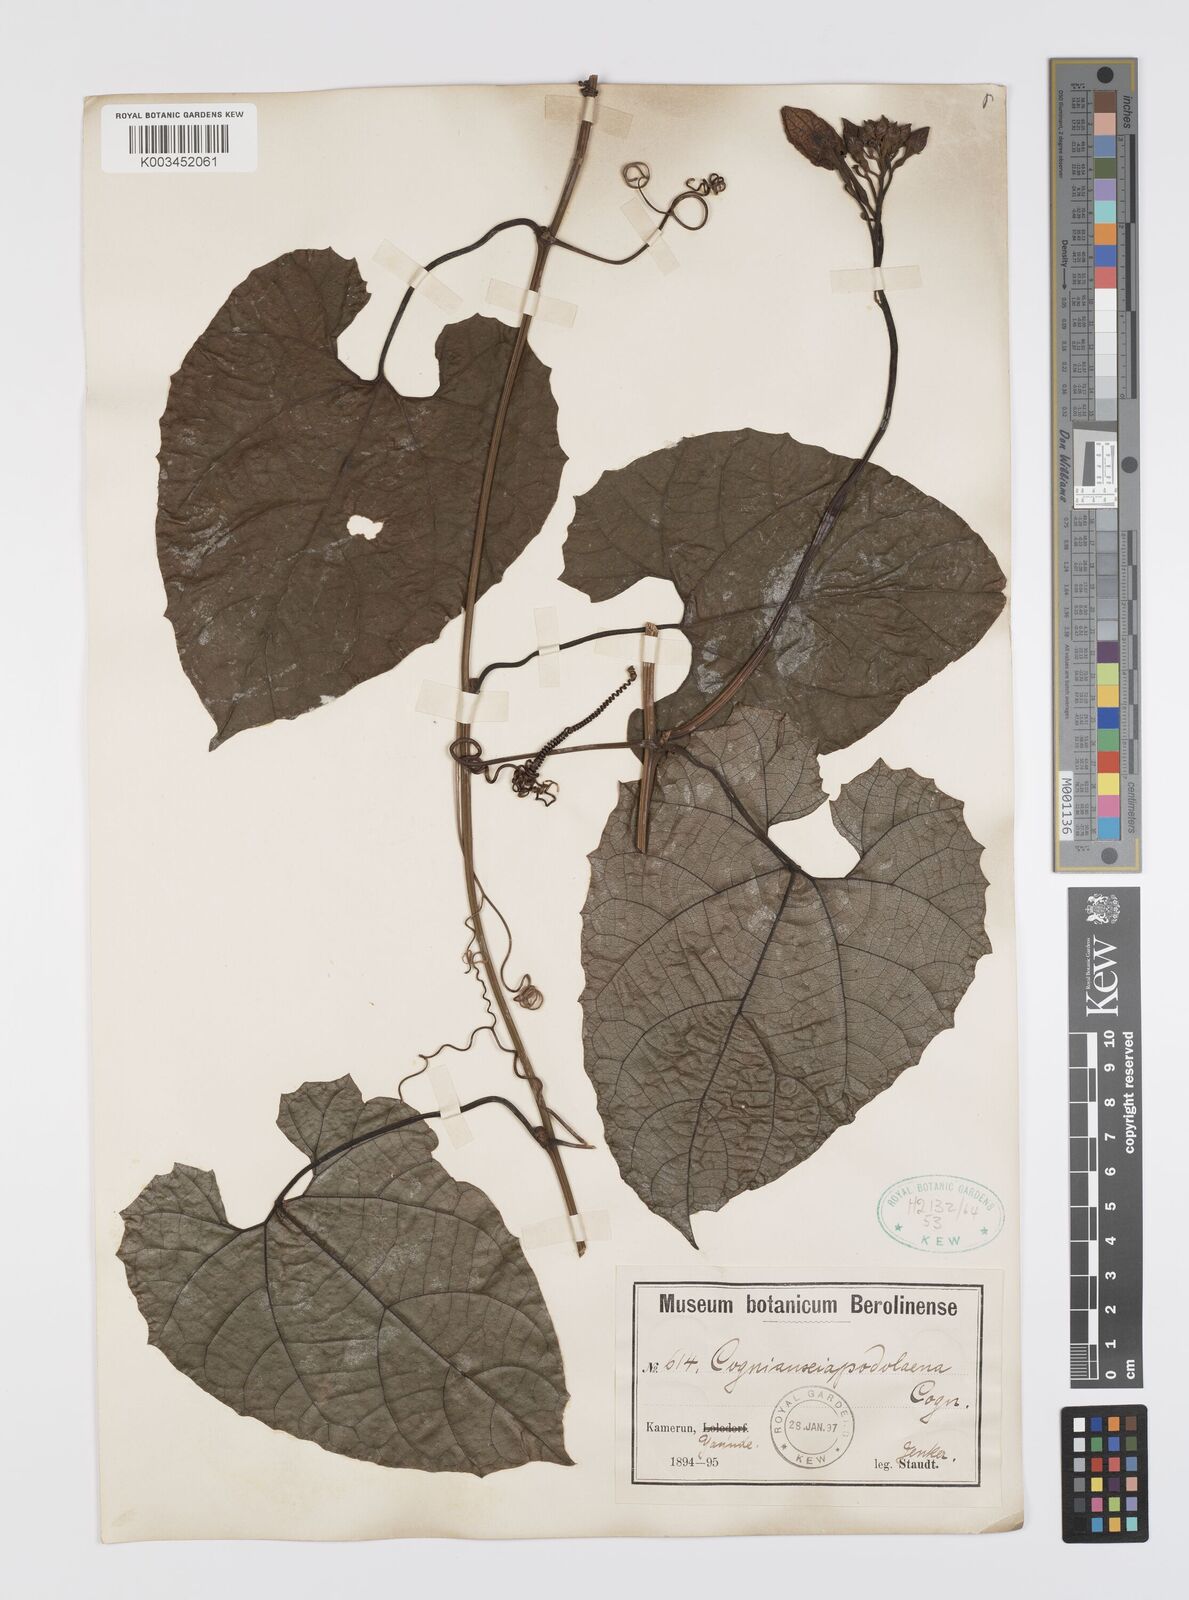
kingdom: Plantae
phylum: Tracheophyta
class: Magnoliopsida
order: Cucurbitales
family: Cucurbitaceae
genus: Cogniauxia
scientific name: Cogniauxia podolaena
